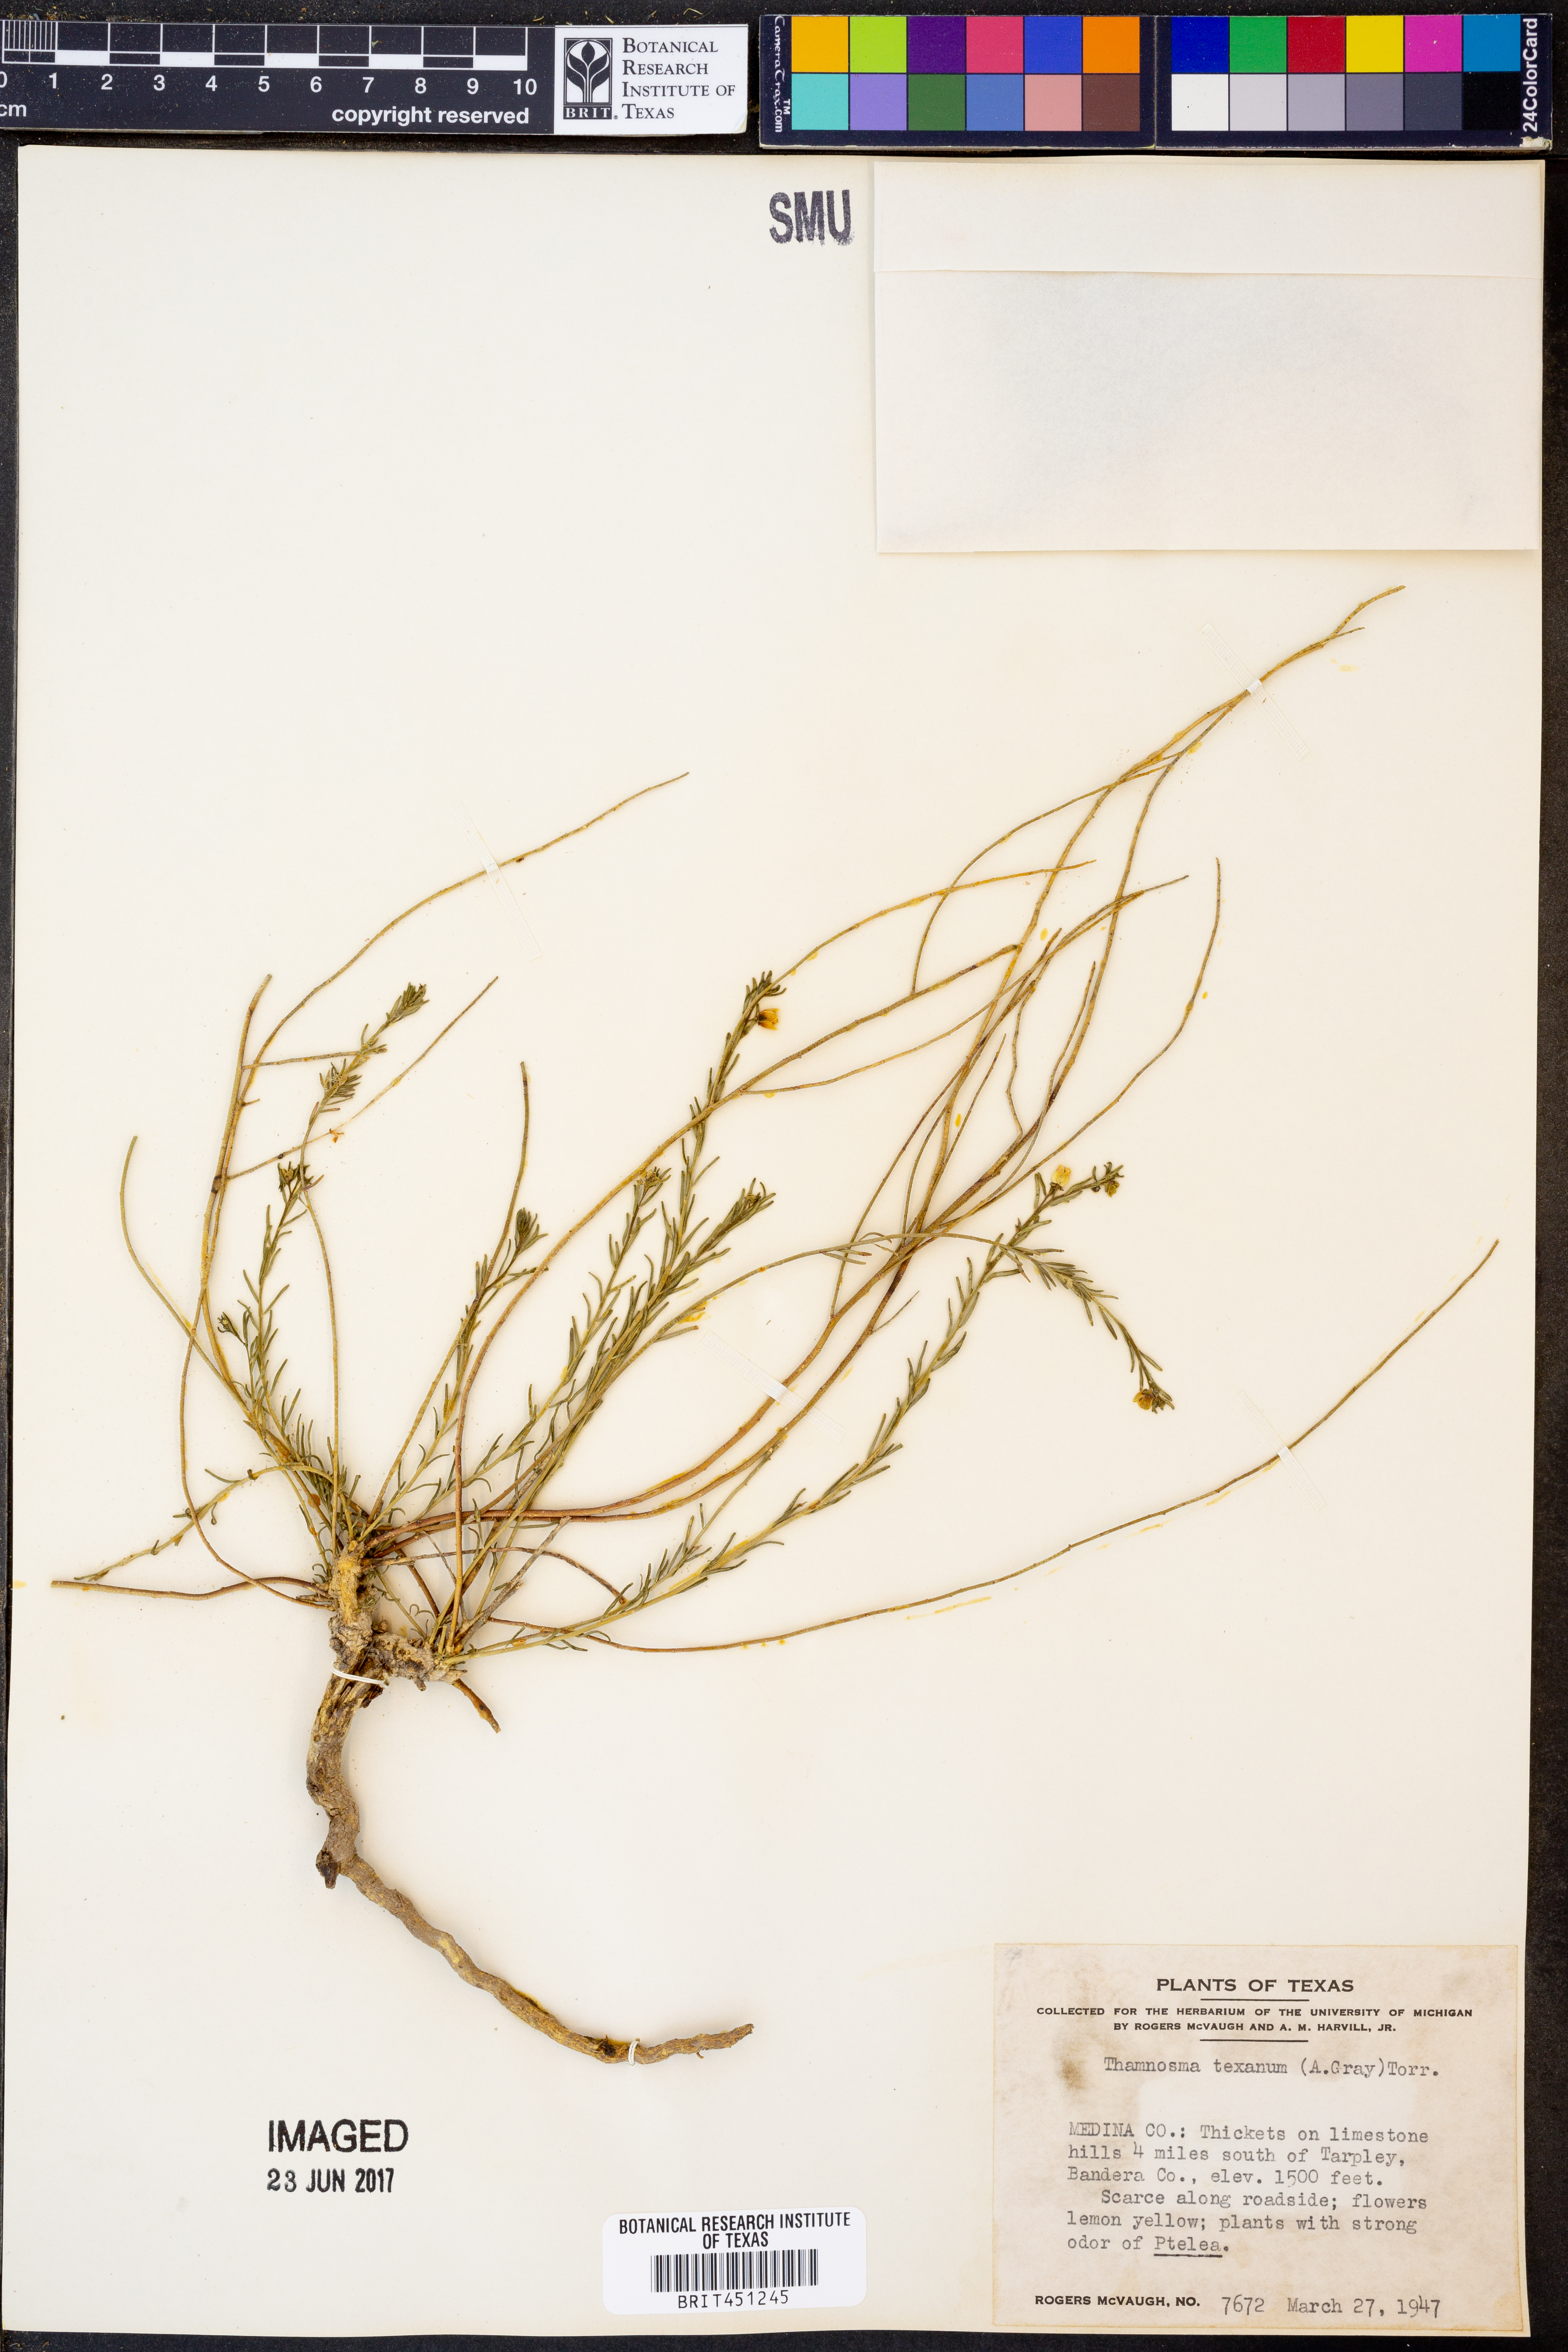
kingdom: Plantae
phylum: Tracheophyta
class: Magnoliopsida
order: Sapindales
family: Rutaceae
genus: Thamnosma
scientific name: Thamnosma texana
